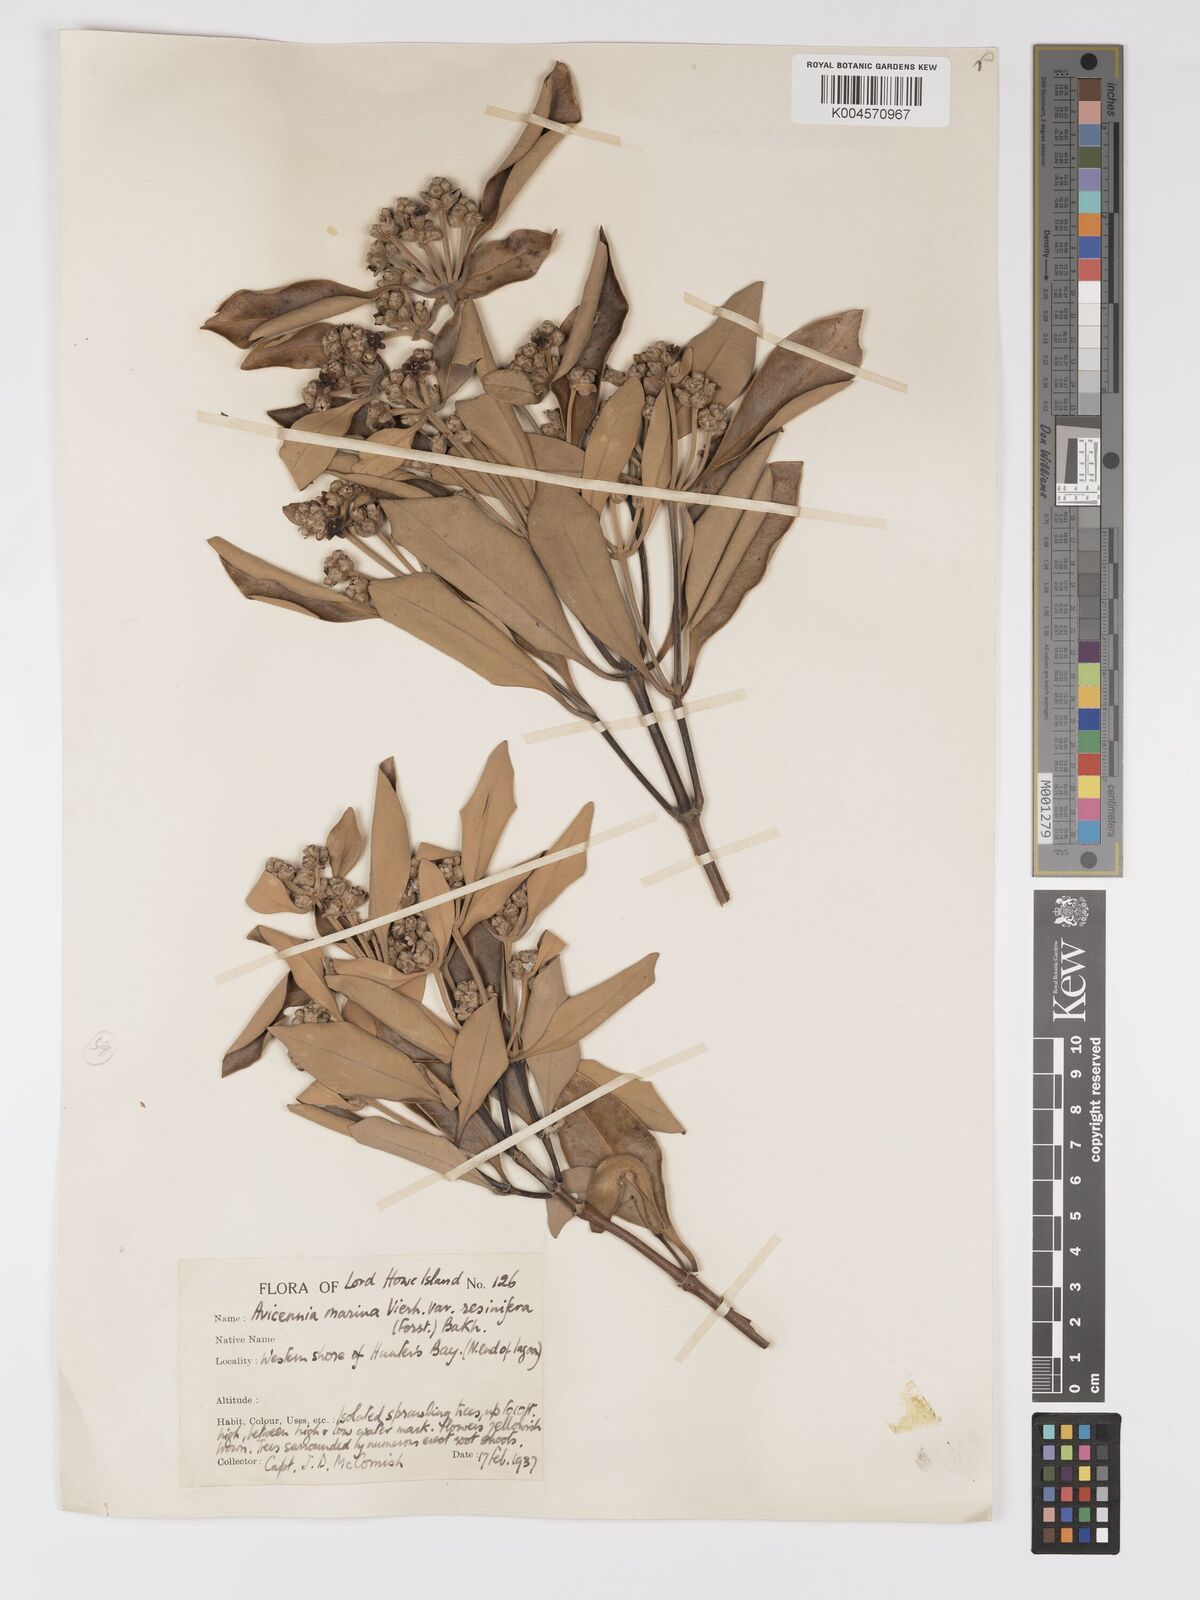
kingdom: Plantae
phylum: Tracheophyta
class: Magnoliopsida
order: Lamiales
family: Acanthaceae
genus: Avicennia
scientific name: Avicennia
